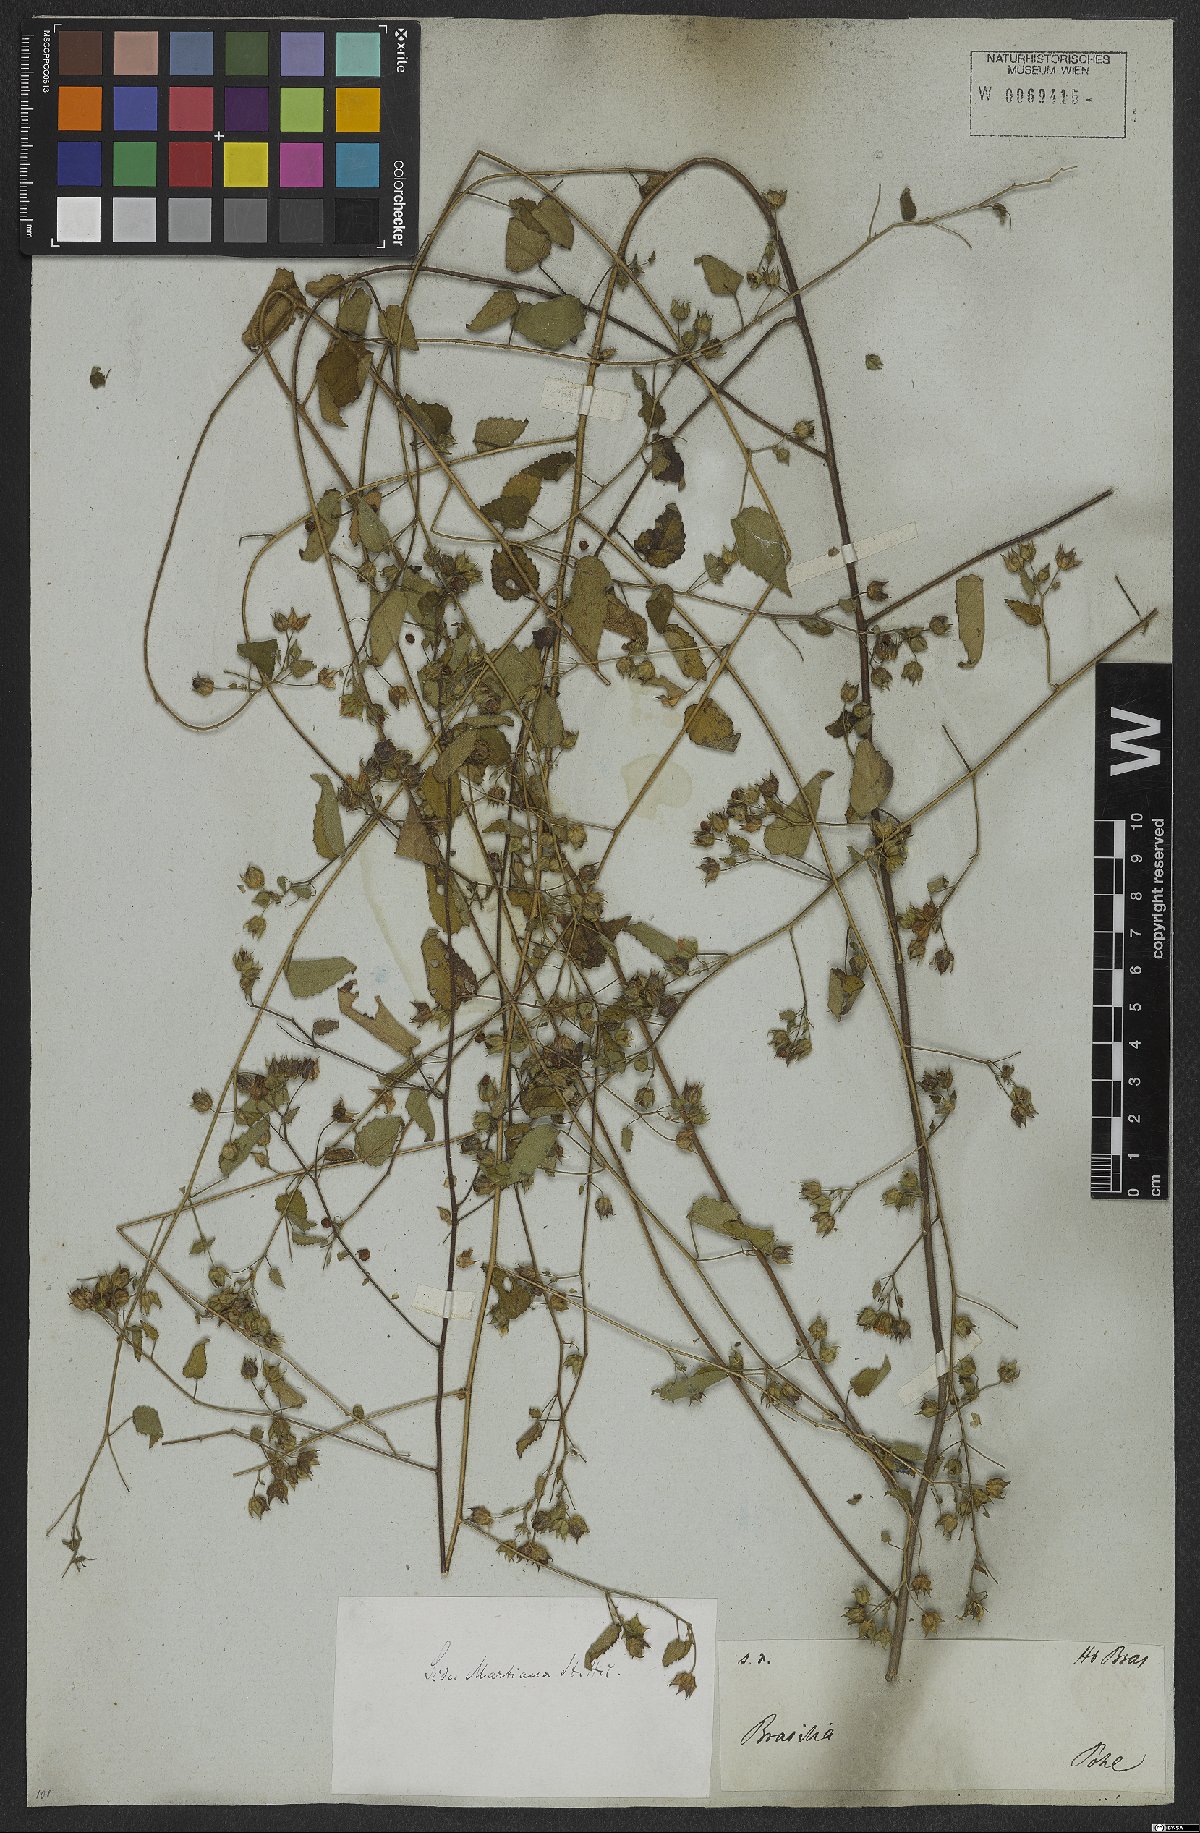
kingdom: Plantae
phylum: Tracheophyta
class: Magnoliopsida
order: Malvales
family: Malvaceae
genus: Sida
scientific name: Sida aurantiaca
